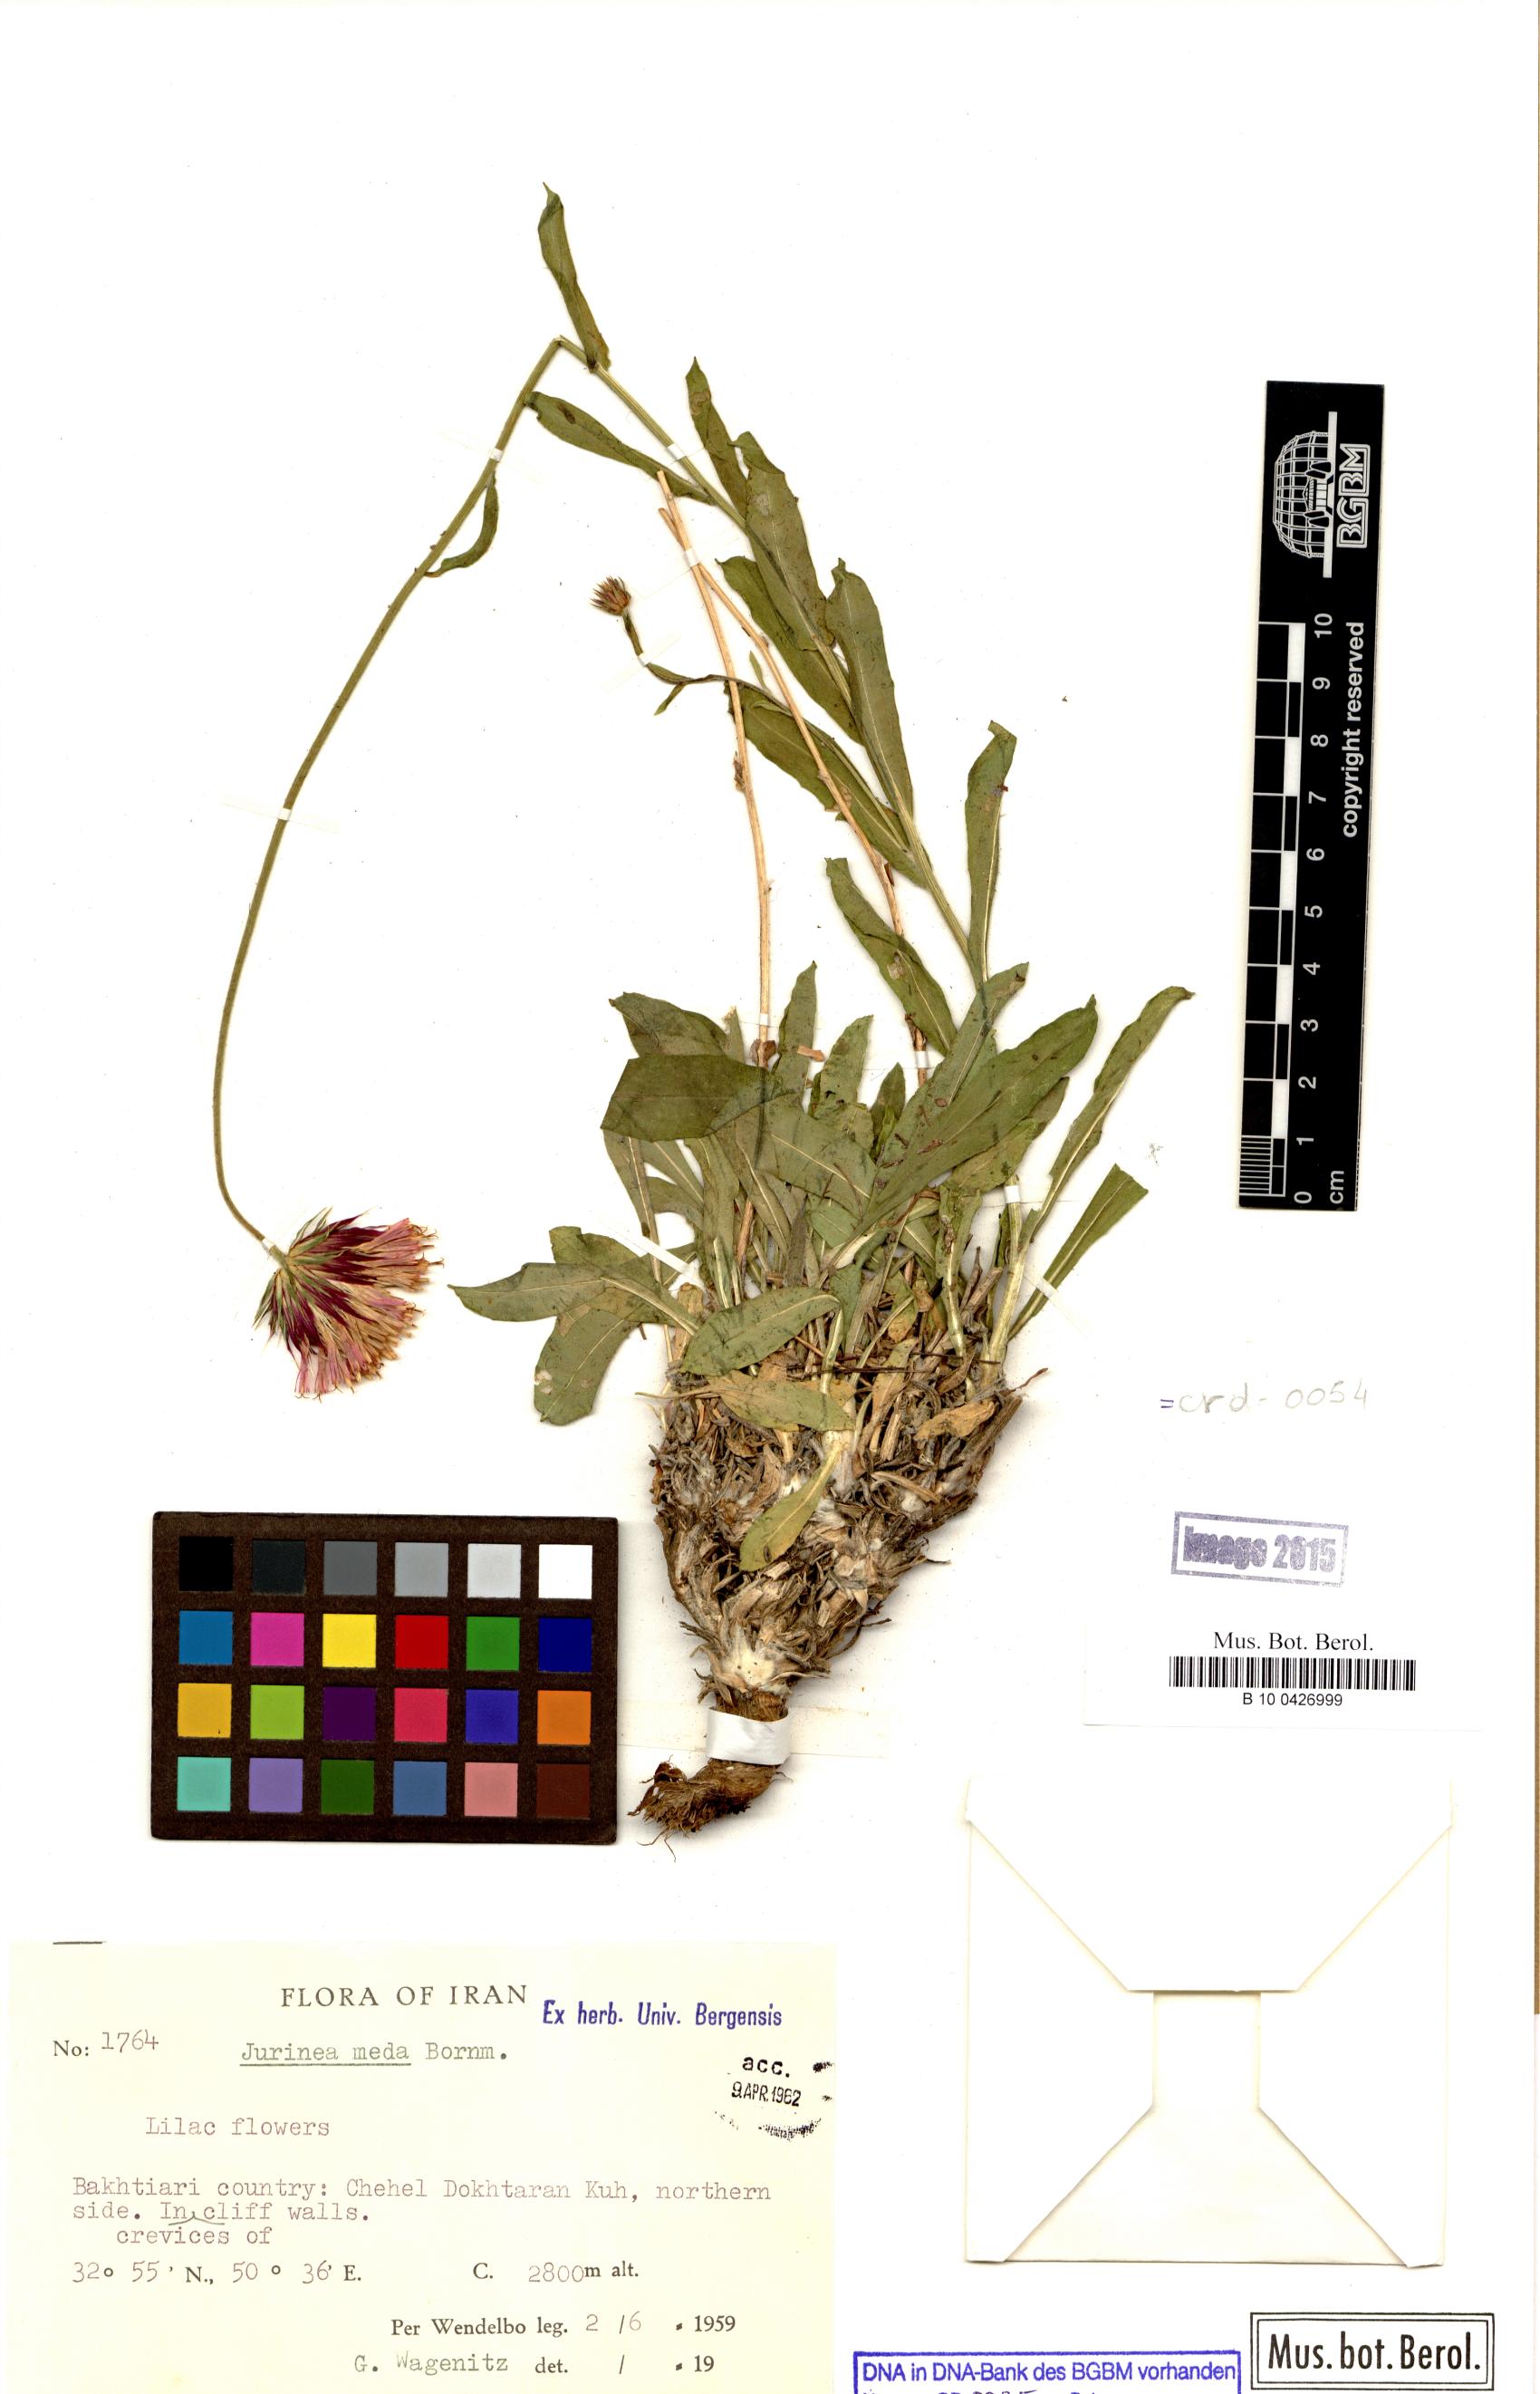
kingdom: Plantae
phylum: Tracheophyta
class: Magnoliopsida
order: Asterales
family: Asteraceae
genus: Jurinea
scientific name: Jurinea meda
